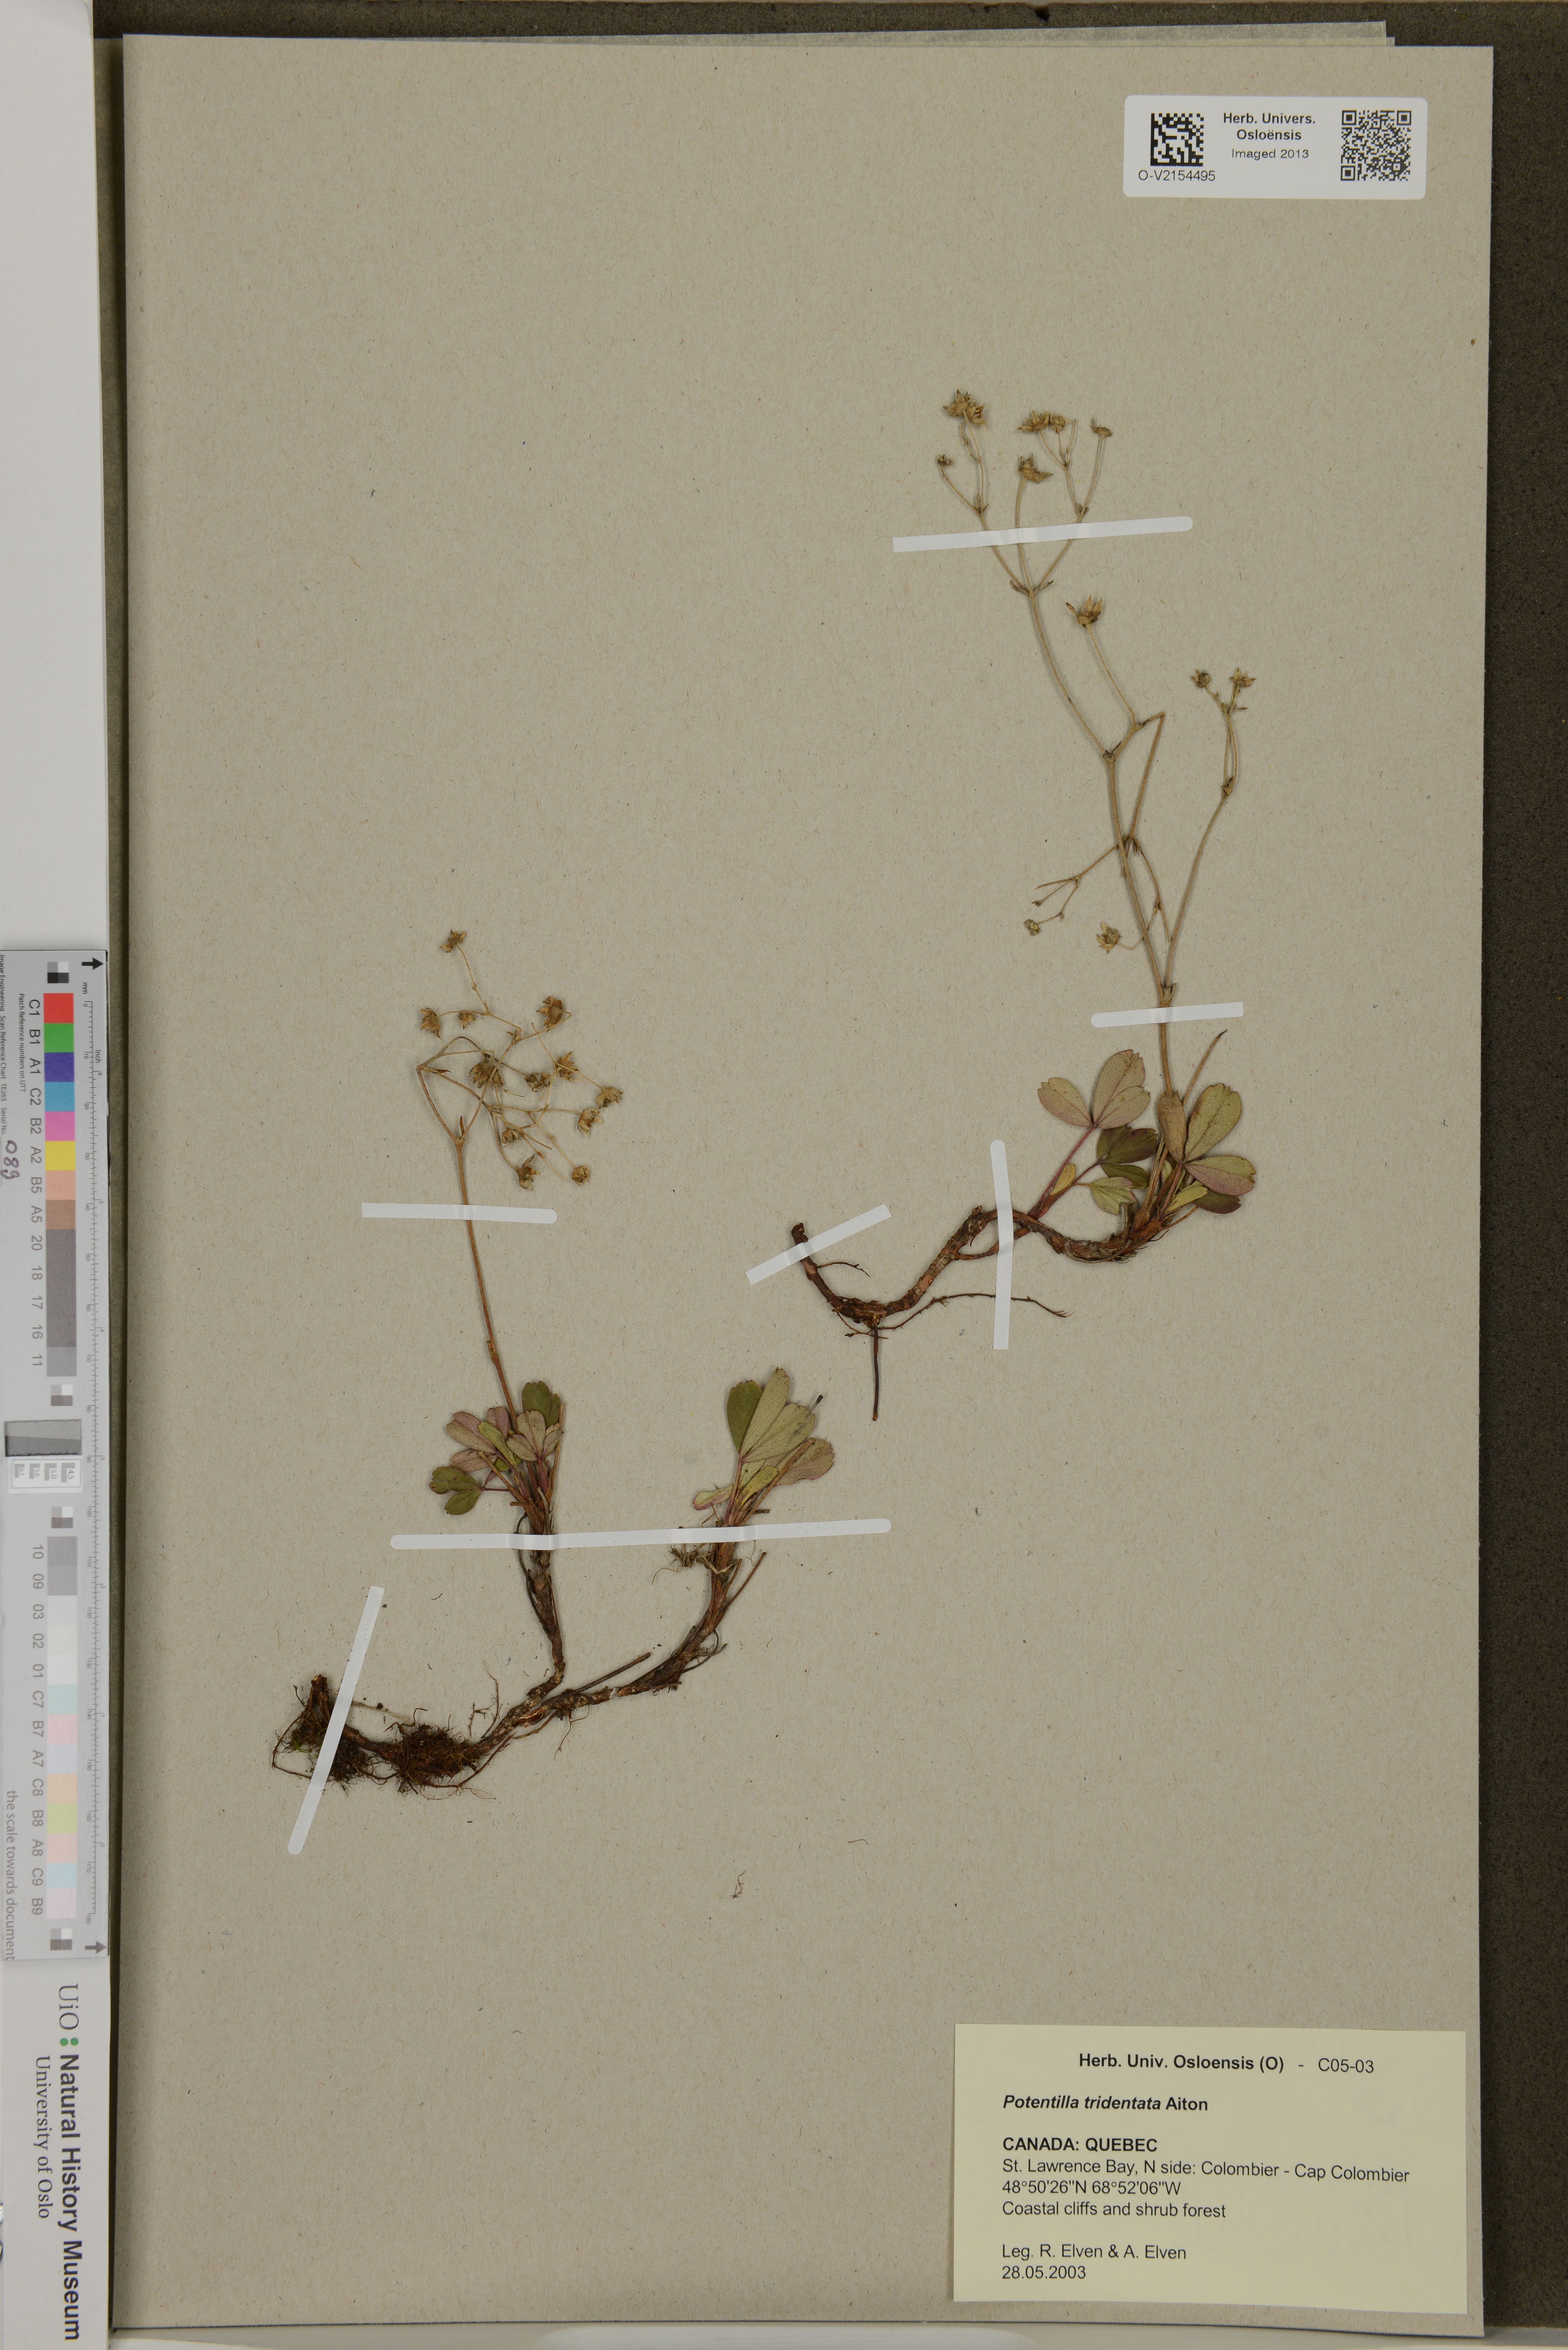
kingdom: Plantae
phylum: Tracheophyta
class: Magnoliopsida
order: Rosales
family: Rosaceae
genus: Sibbaldia
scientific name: Sibbaldia tridentata
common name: Three-toothed cinquefoil
